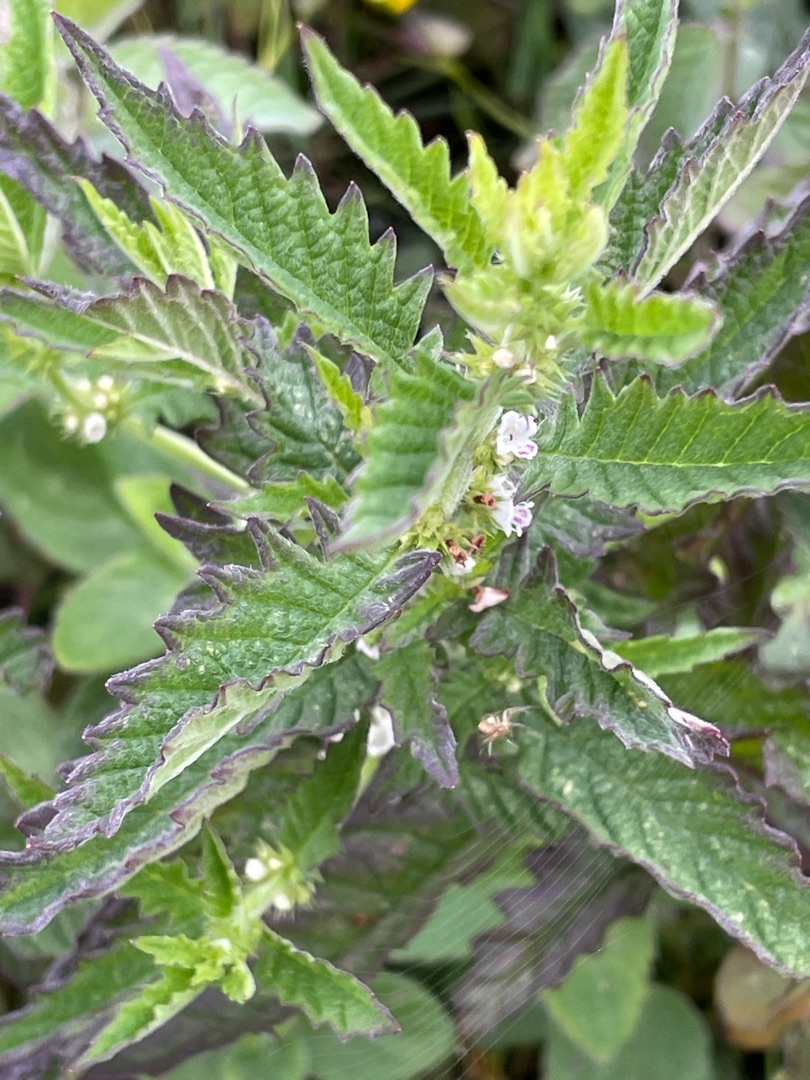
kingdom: Plantae
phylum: Tracheophyta
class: Magnoliopsida
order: Lamiales
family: Lamiaceae
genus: Lycopus
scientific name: Lycopus europaeus
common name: Sværtevæld
